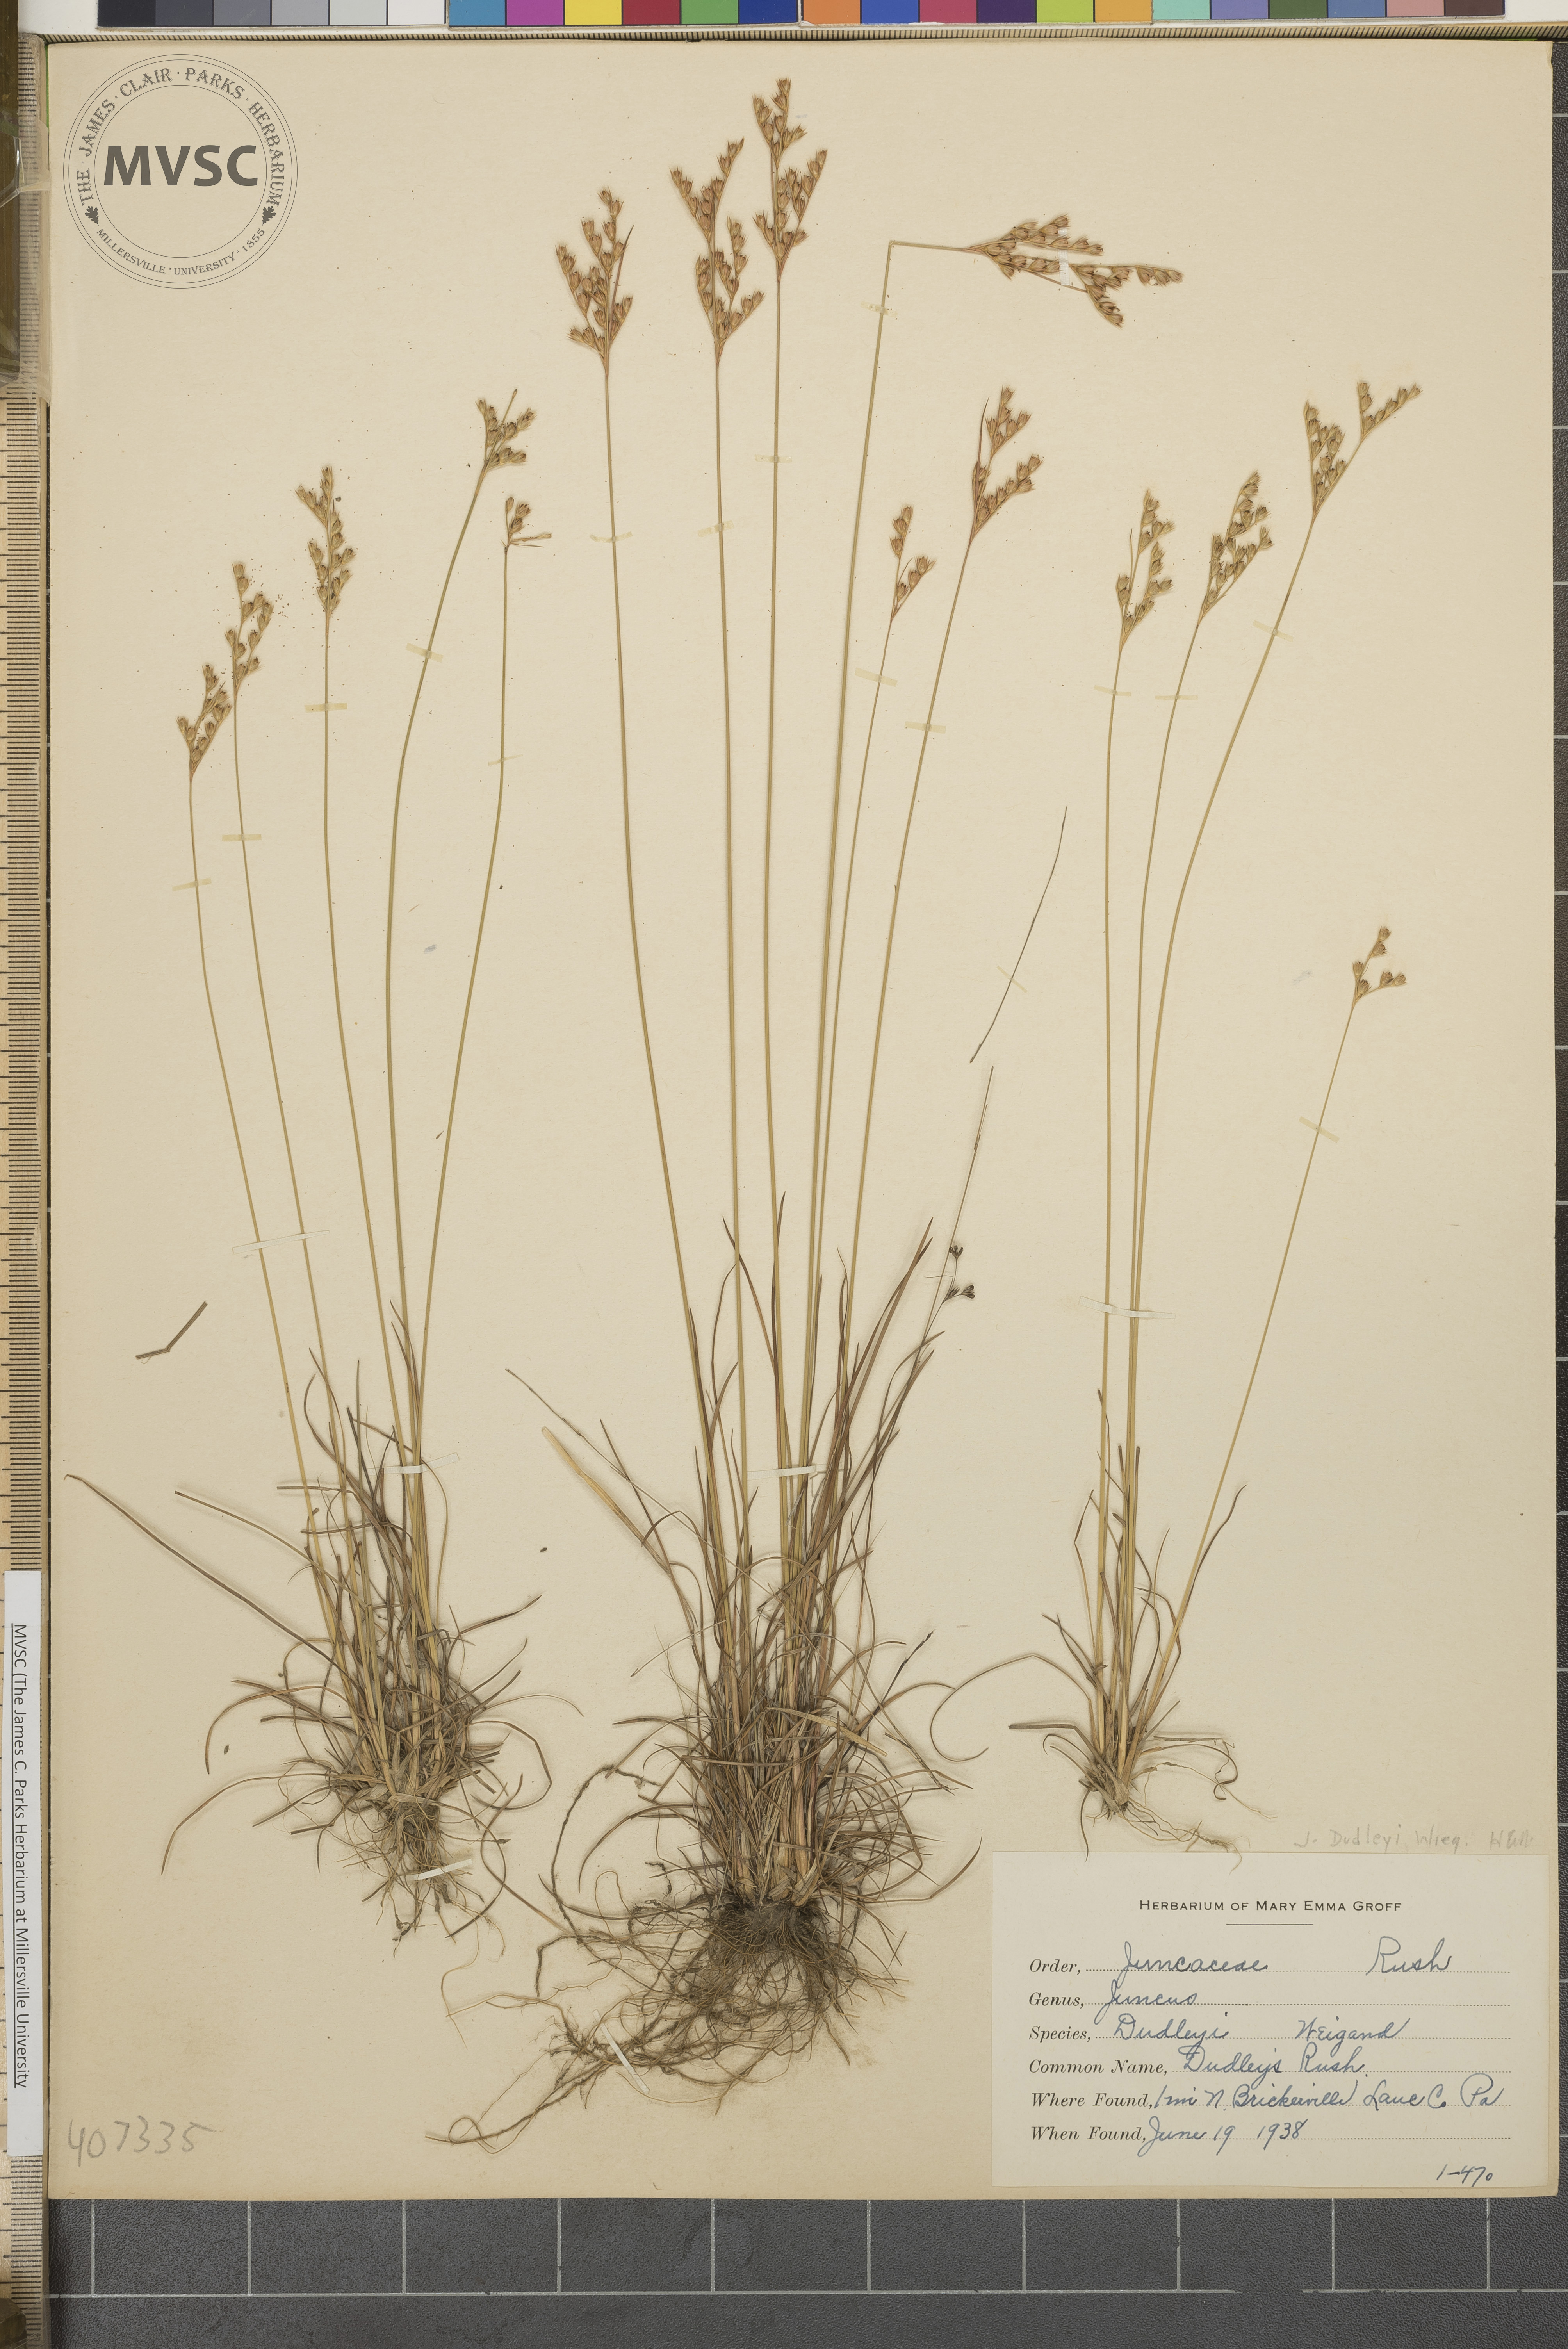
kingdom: Plantae
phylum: Tracheophyta
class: Liliopsida
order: Poales
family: Juncaceae
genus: Juncus
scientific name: Juncus dudleyi
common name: Dudley's Rush
